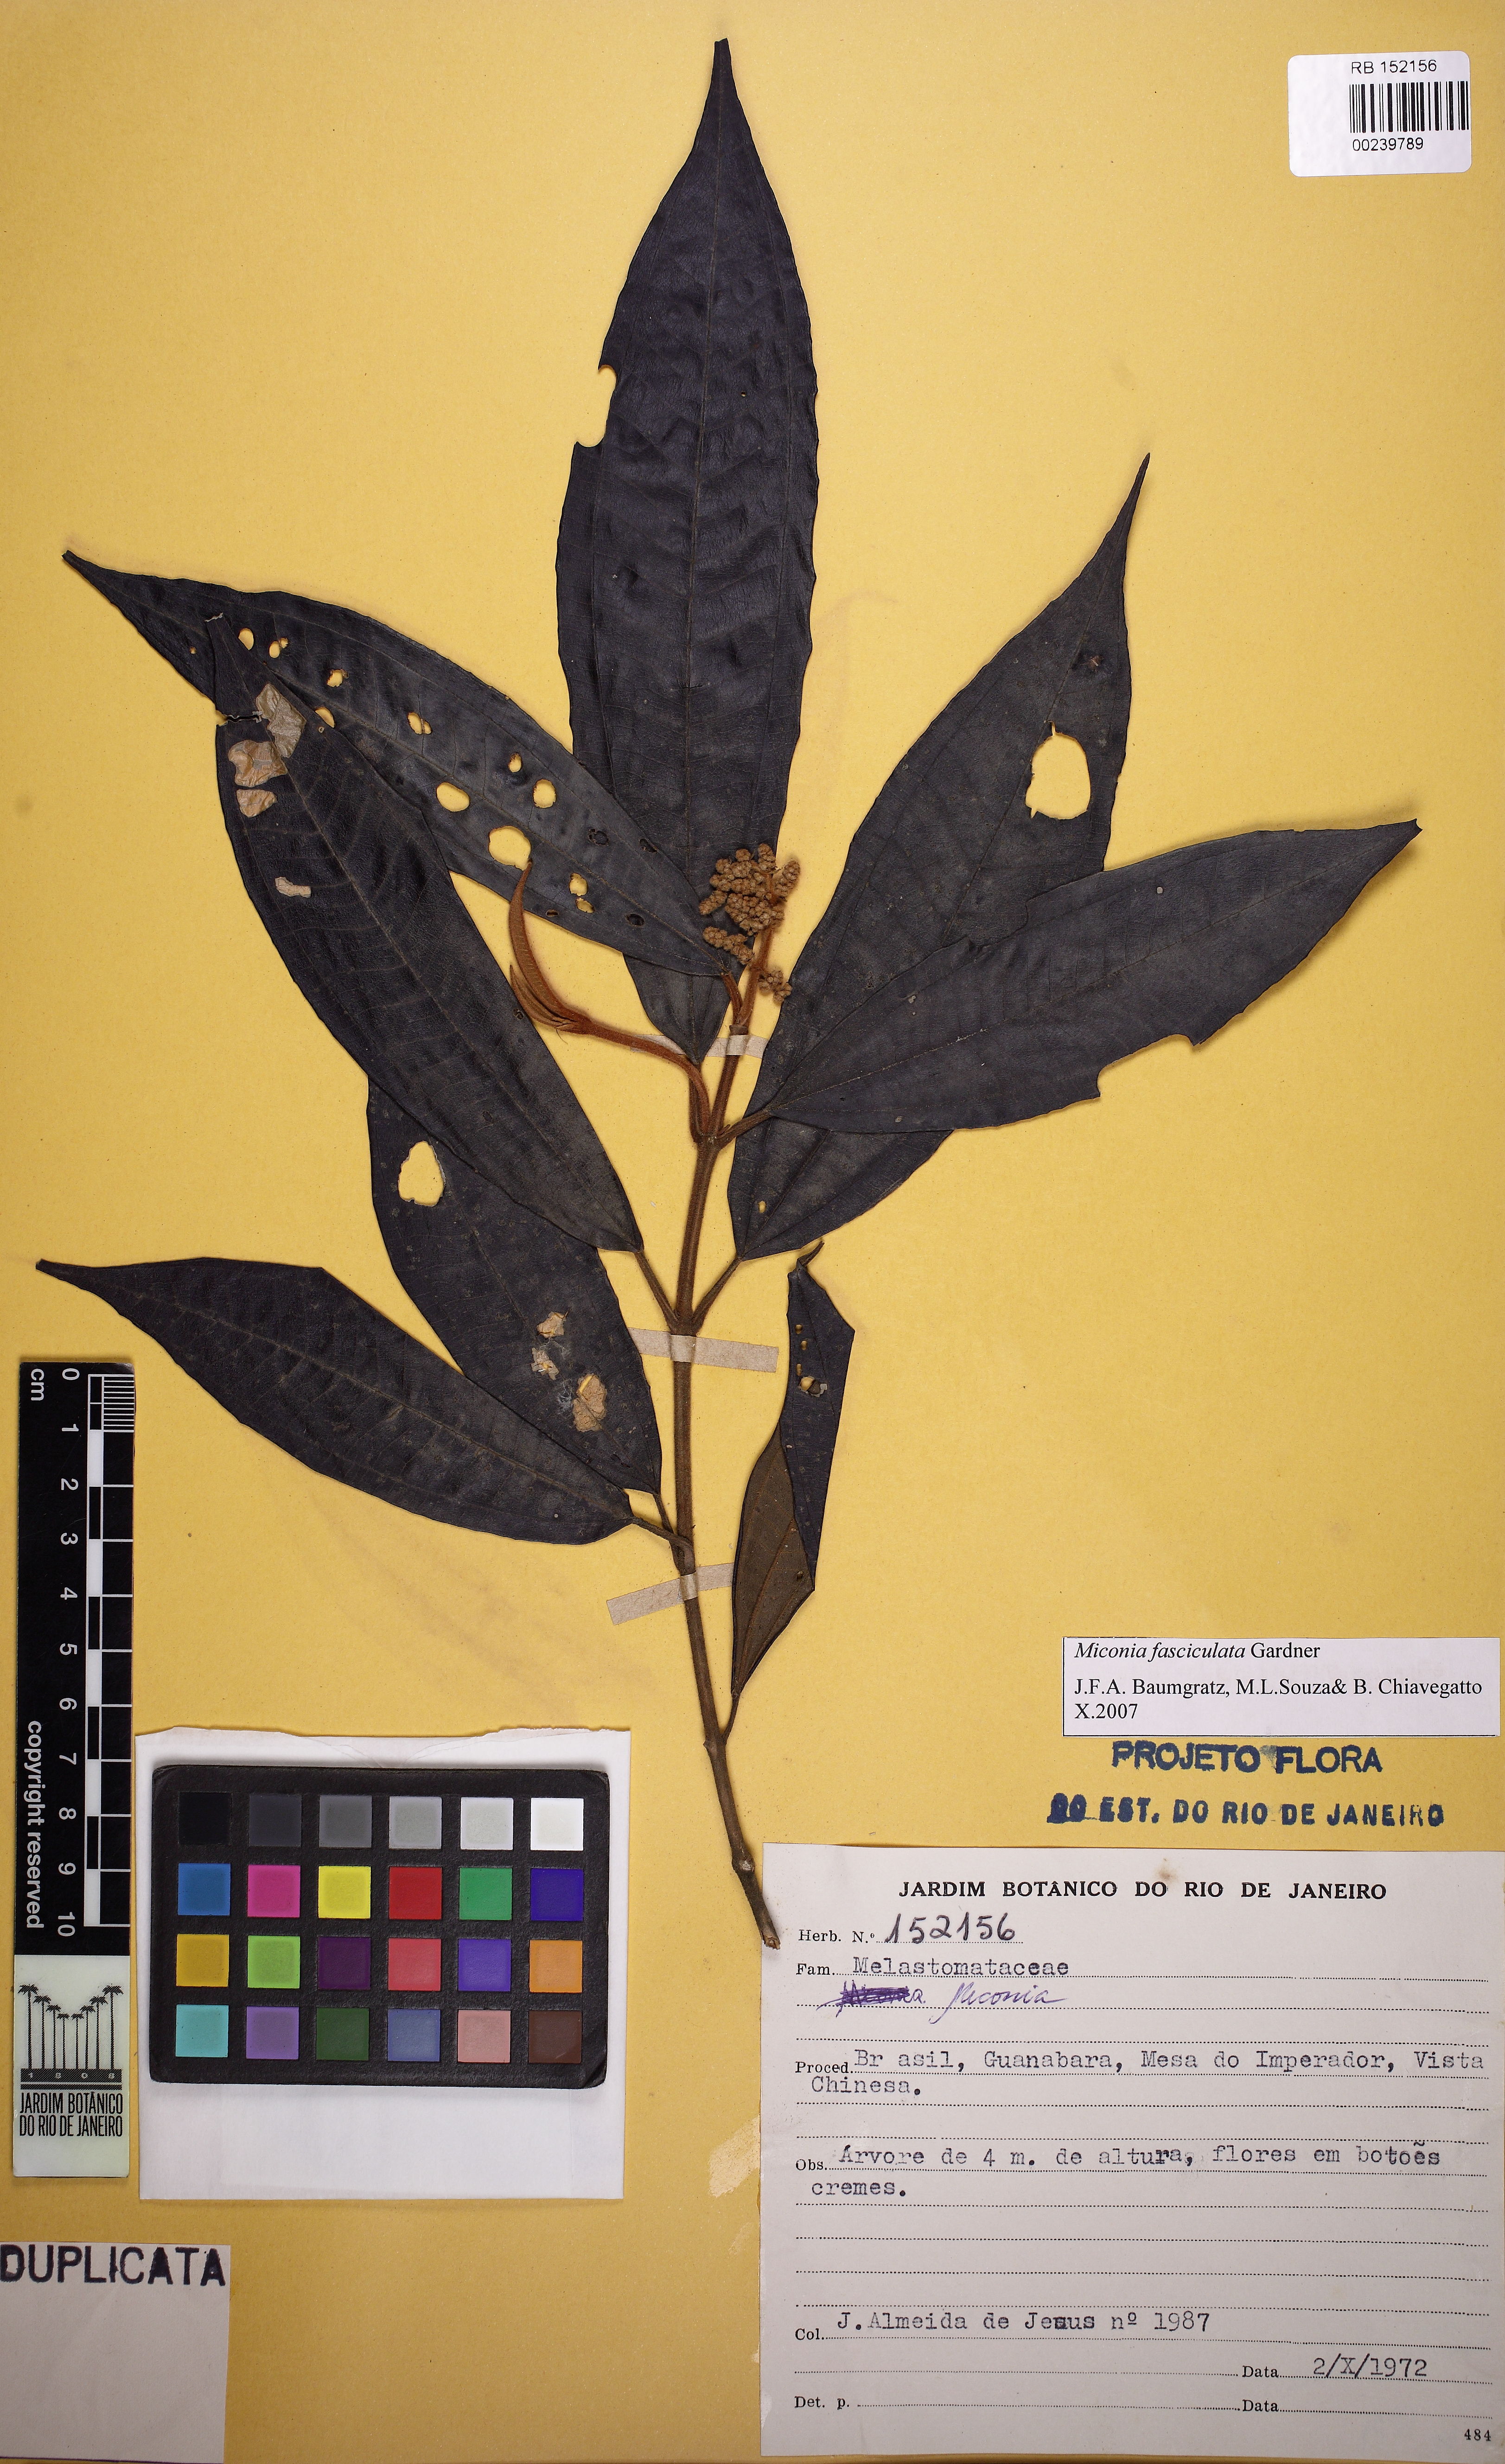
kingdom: Plantae
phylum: Tracheophyta
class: Magnoliopsida
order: Myrtales
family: Melastomataceae
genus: Miconia
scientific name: Miconia ferruginata
